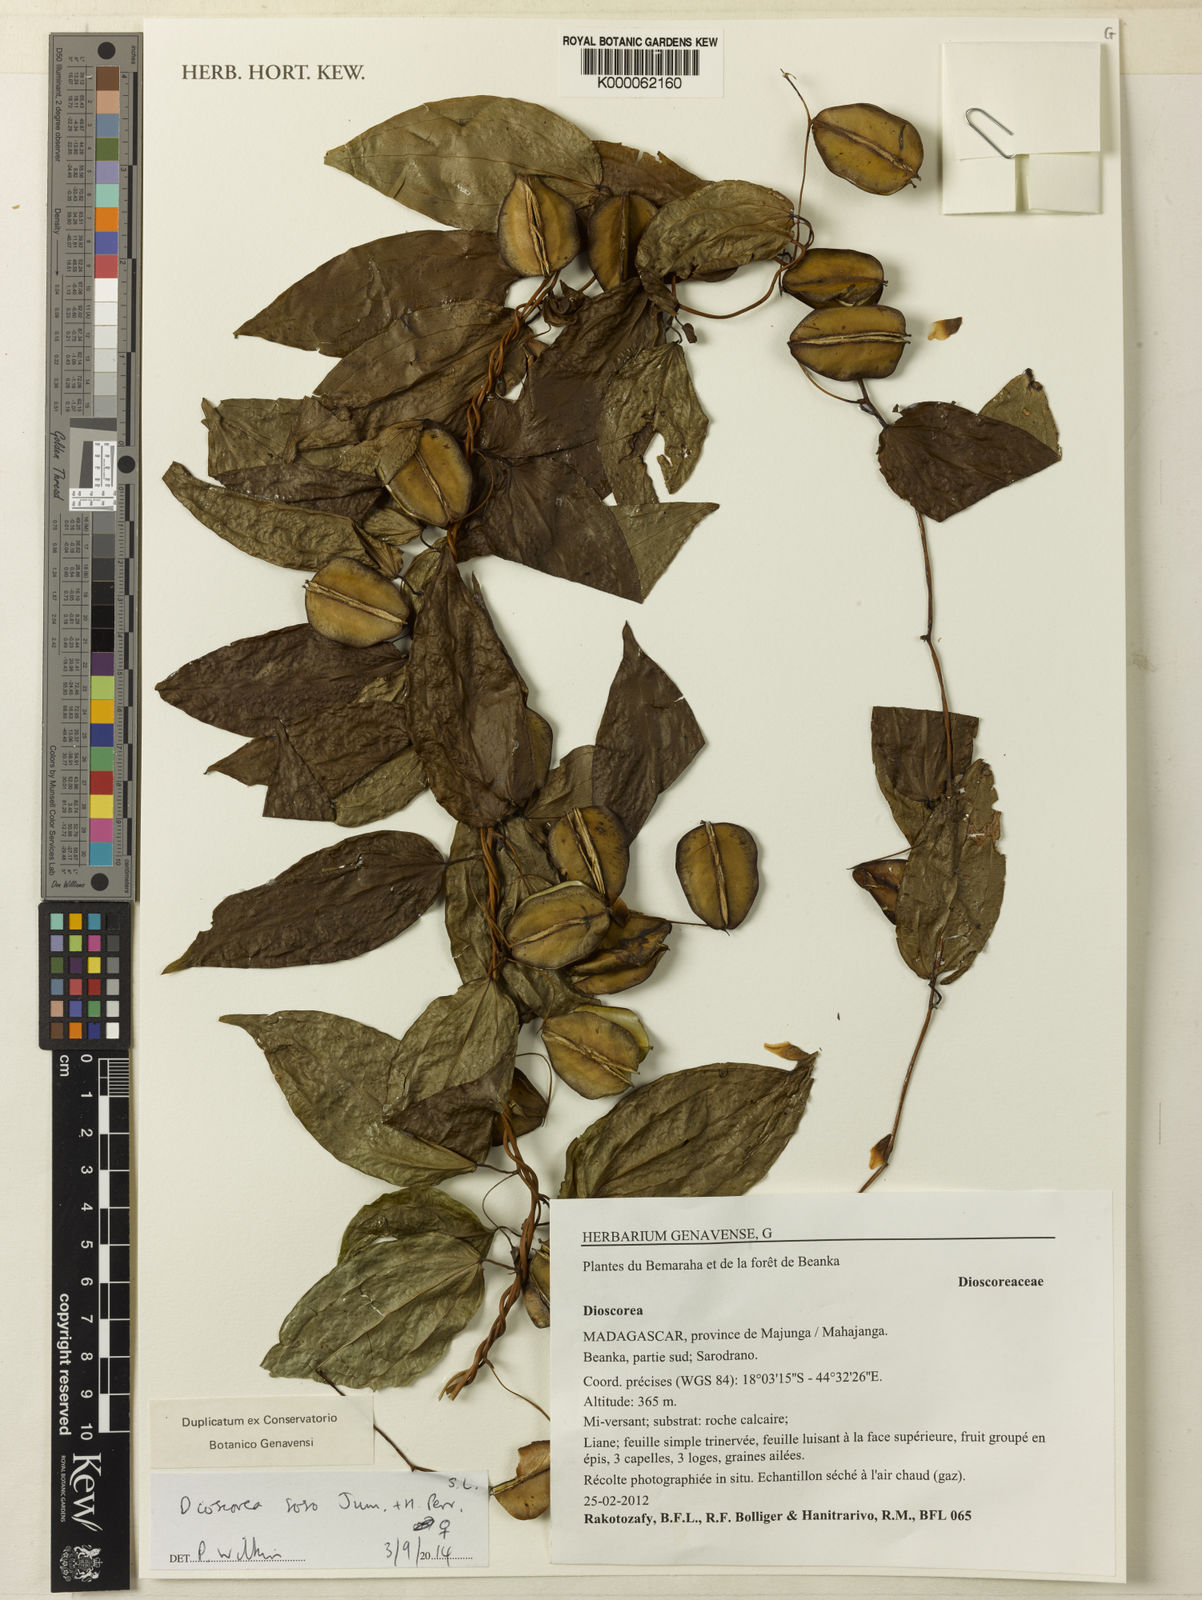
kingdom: Plantae
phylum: Tracheophyta
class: Liliopsida
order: Dioscoreales
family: Dioscoreaceae
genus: Dioscorea
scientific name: Dioscorea soso
